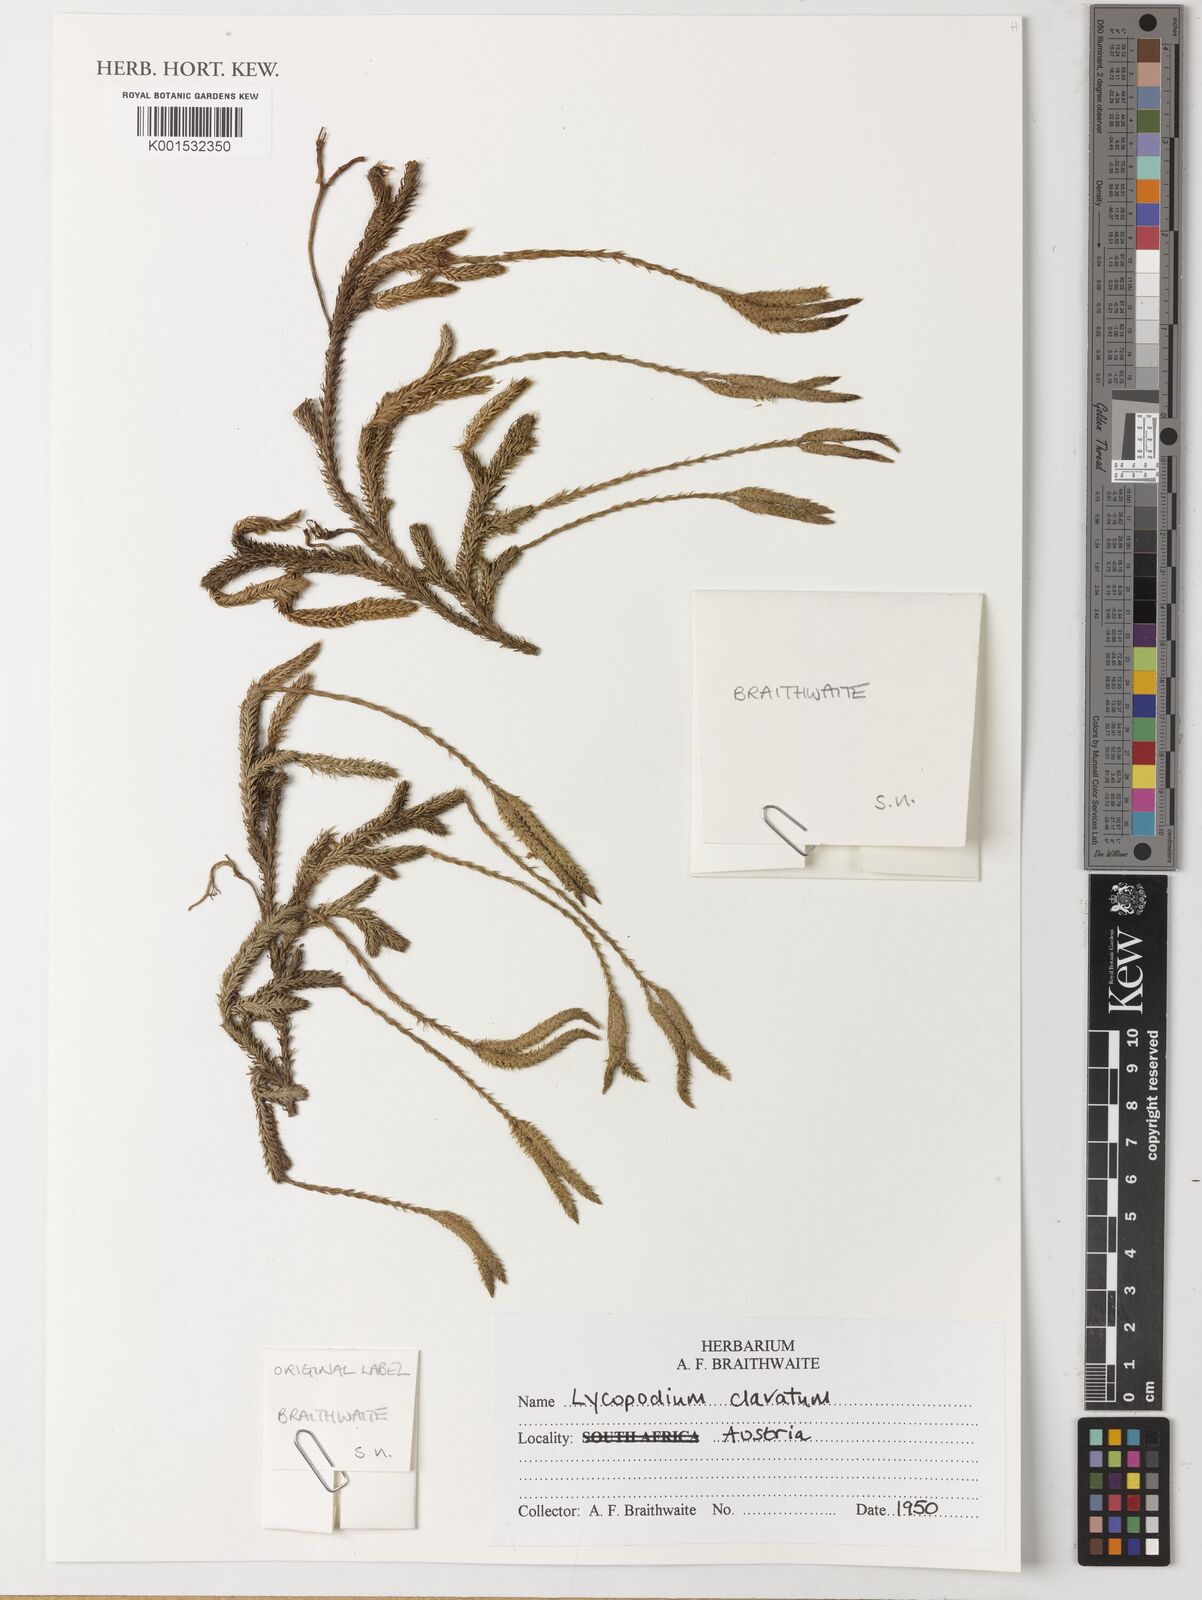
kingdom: Plantae
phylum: Tracheophyta
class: Lycopodiopsida
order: Lycopodiales
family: Lycopodiaceae
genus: Lycopodium
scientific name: Lycopodium clavatum
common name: Stag's-horn clubmoss
